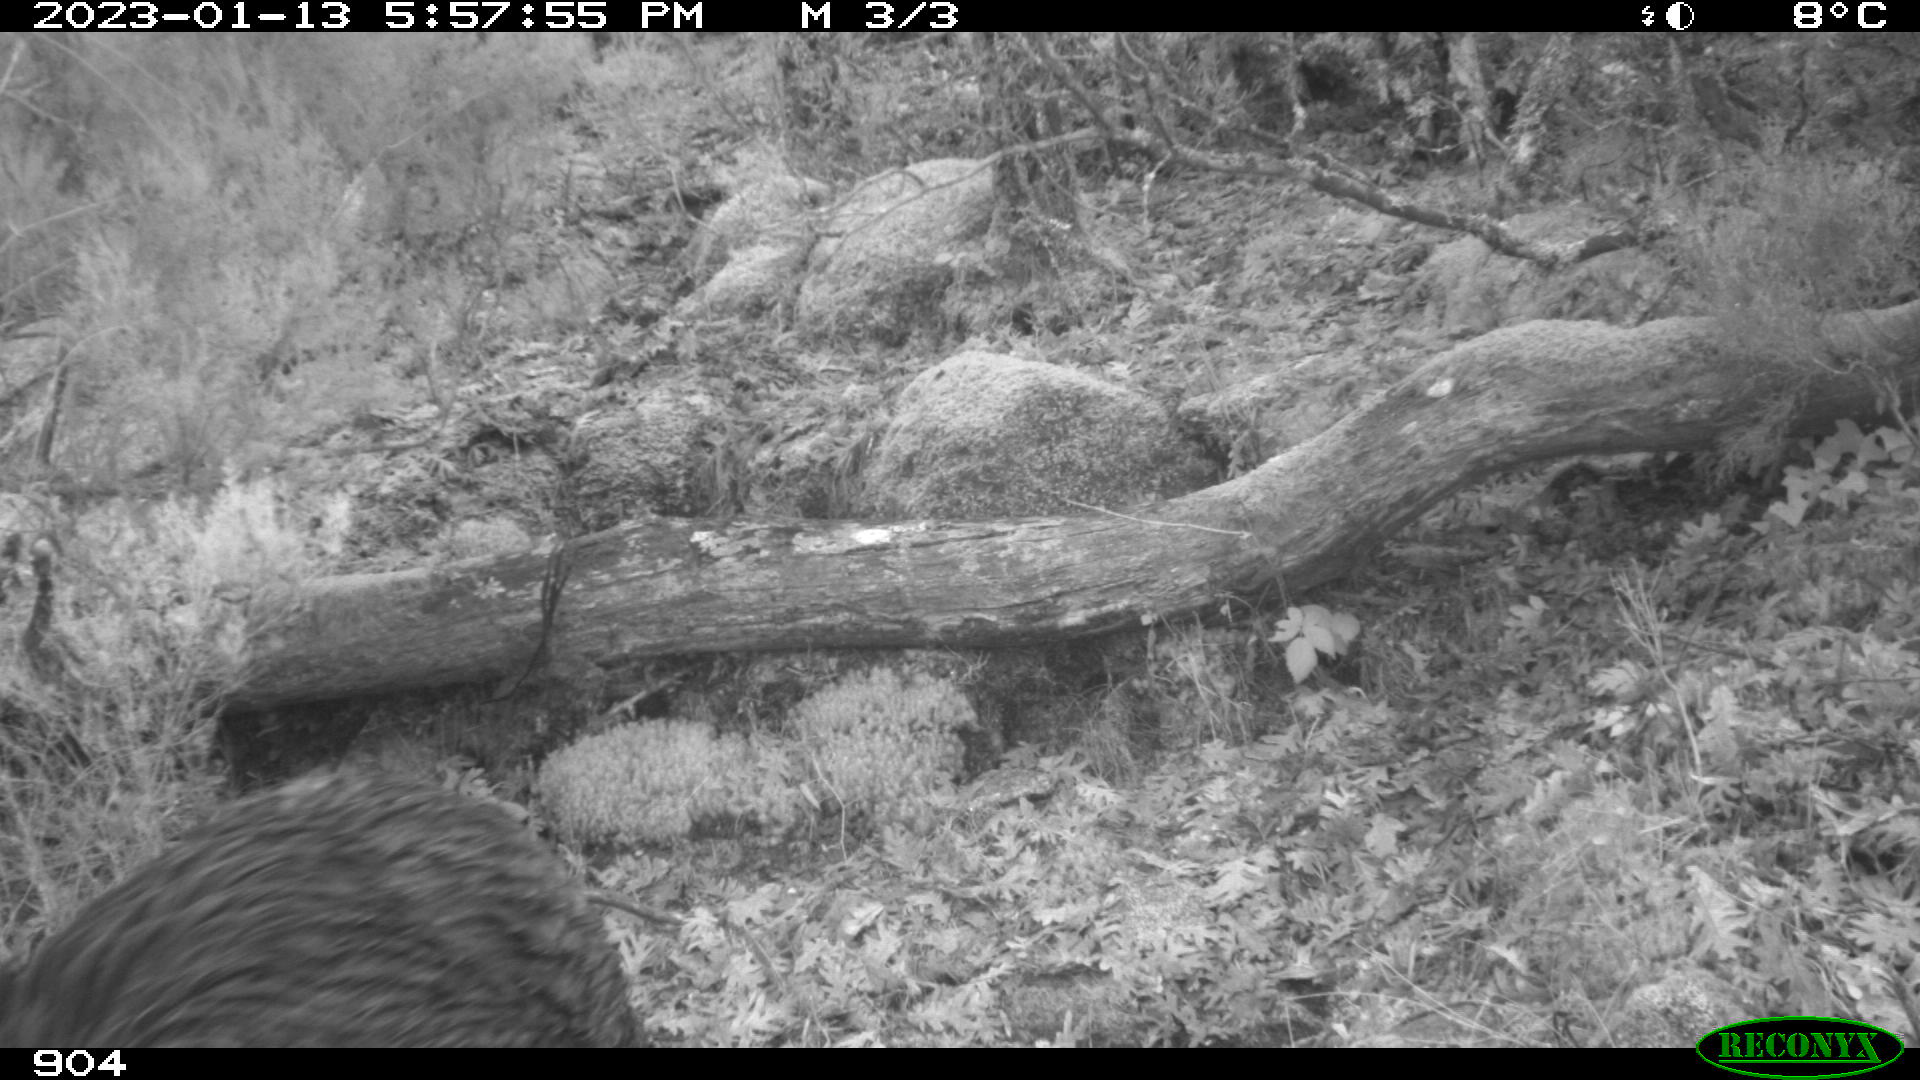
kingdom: Animalia
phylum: Chordata
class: Mammalia
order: Artiodactyla
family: Suidae
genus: Sus
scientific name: Sus scrofa
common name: Wild boar
